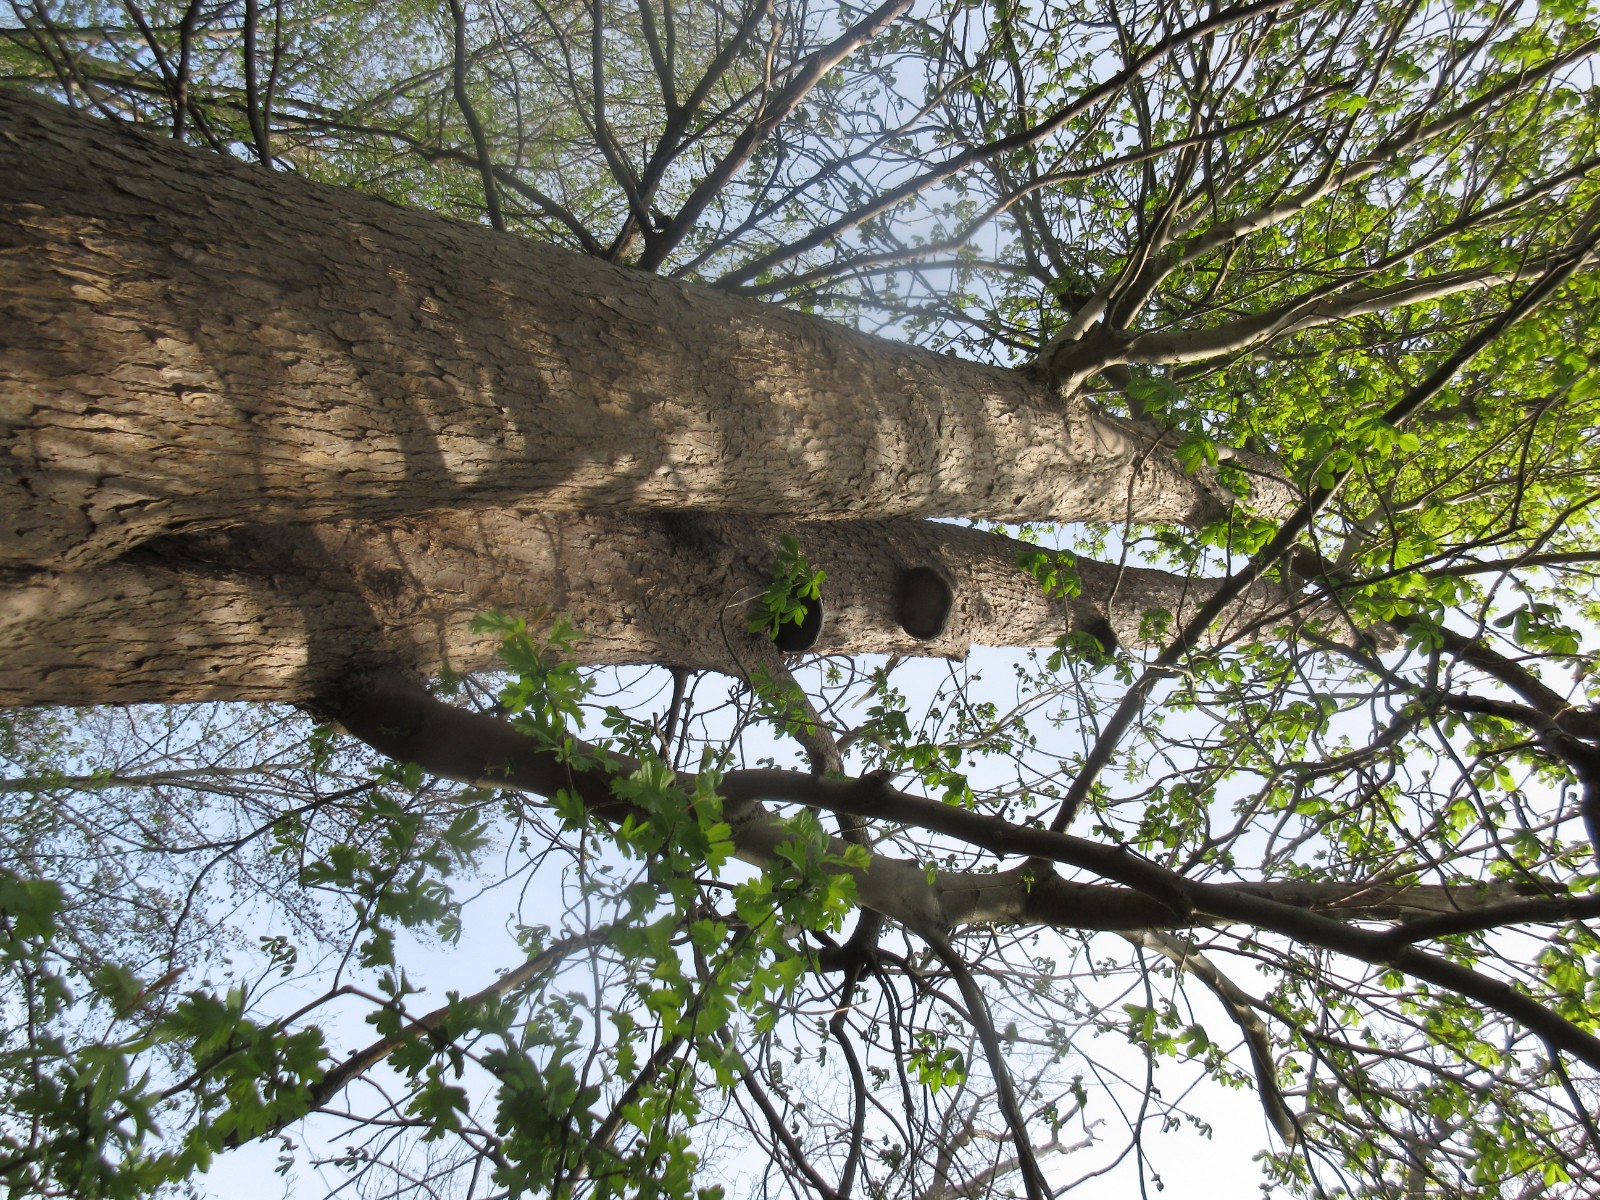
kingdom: Fungi
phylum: Basidiomycota
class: Agaricomycetes
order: Polyporales
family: Polyporaceae
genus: Fomes
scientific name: Fomes fomentarius
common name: tøndersvamp
